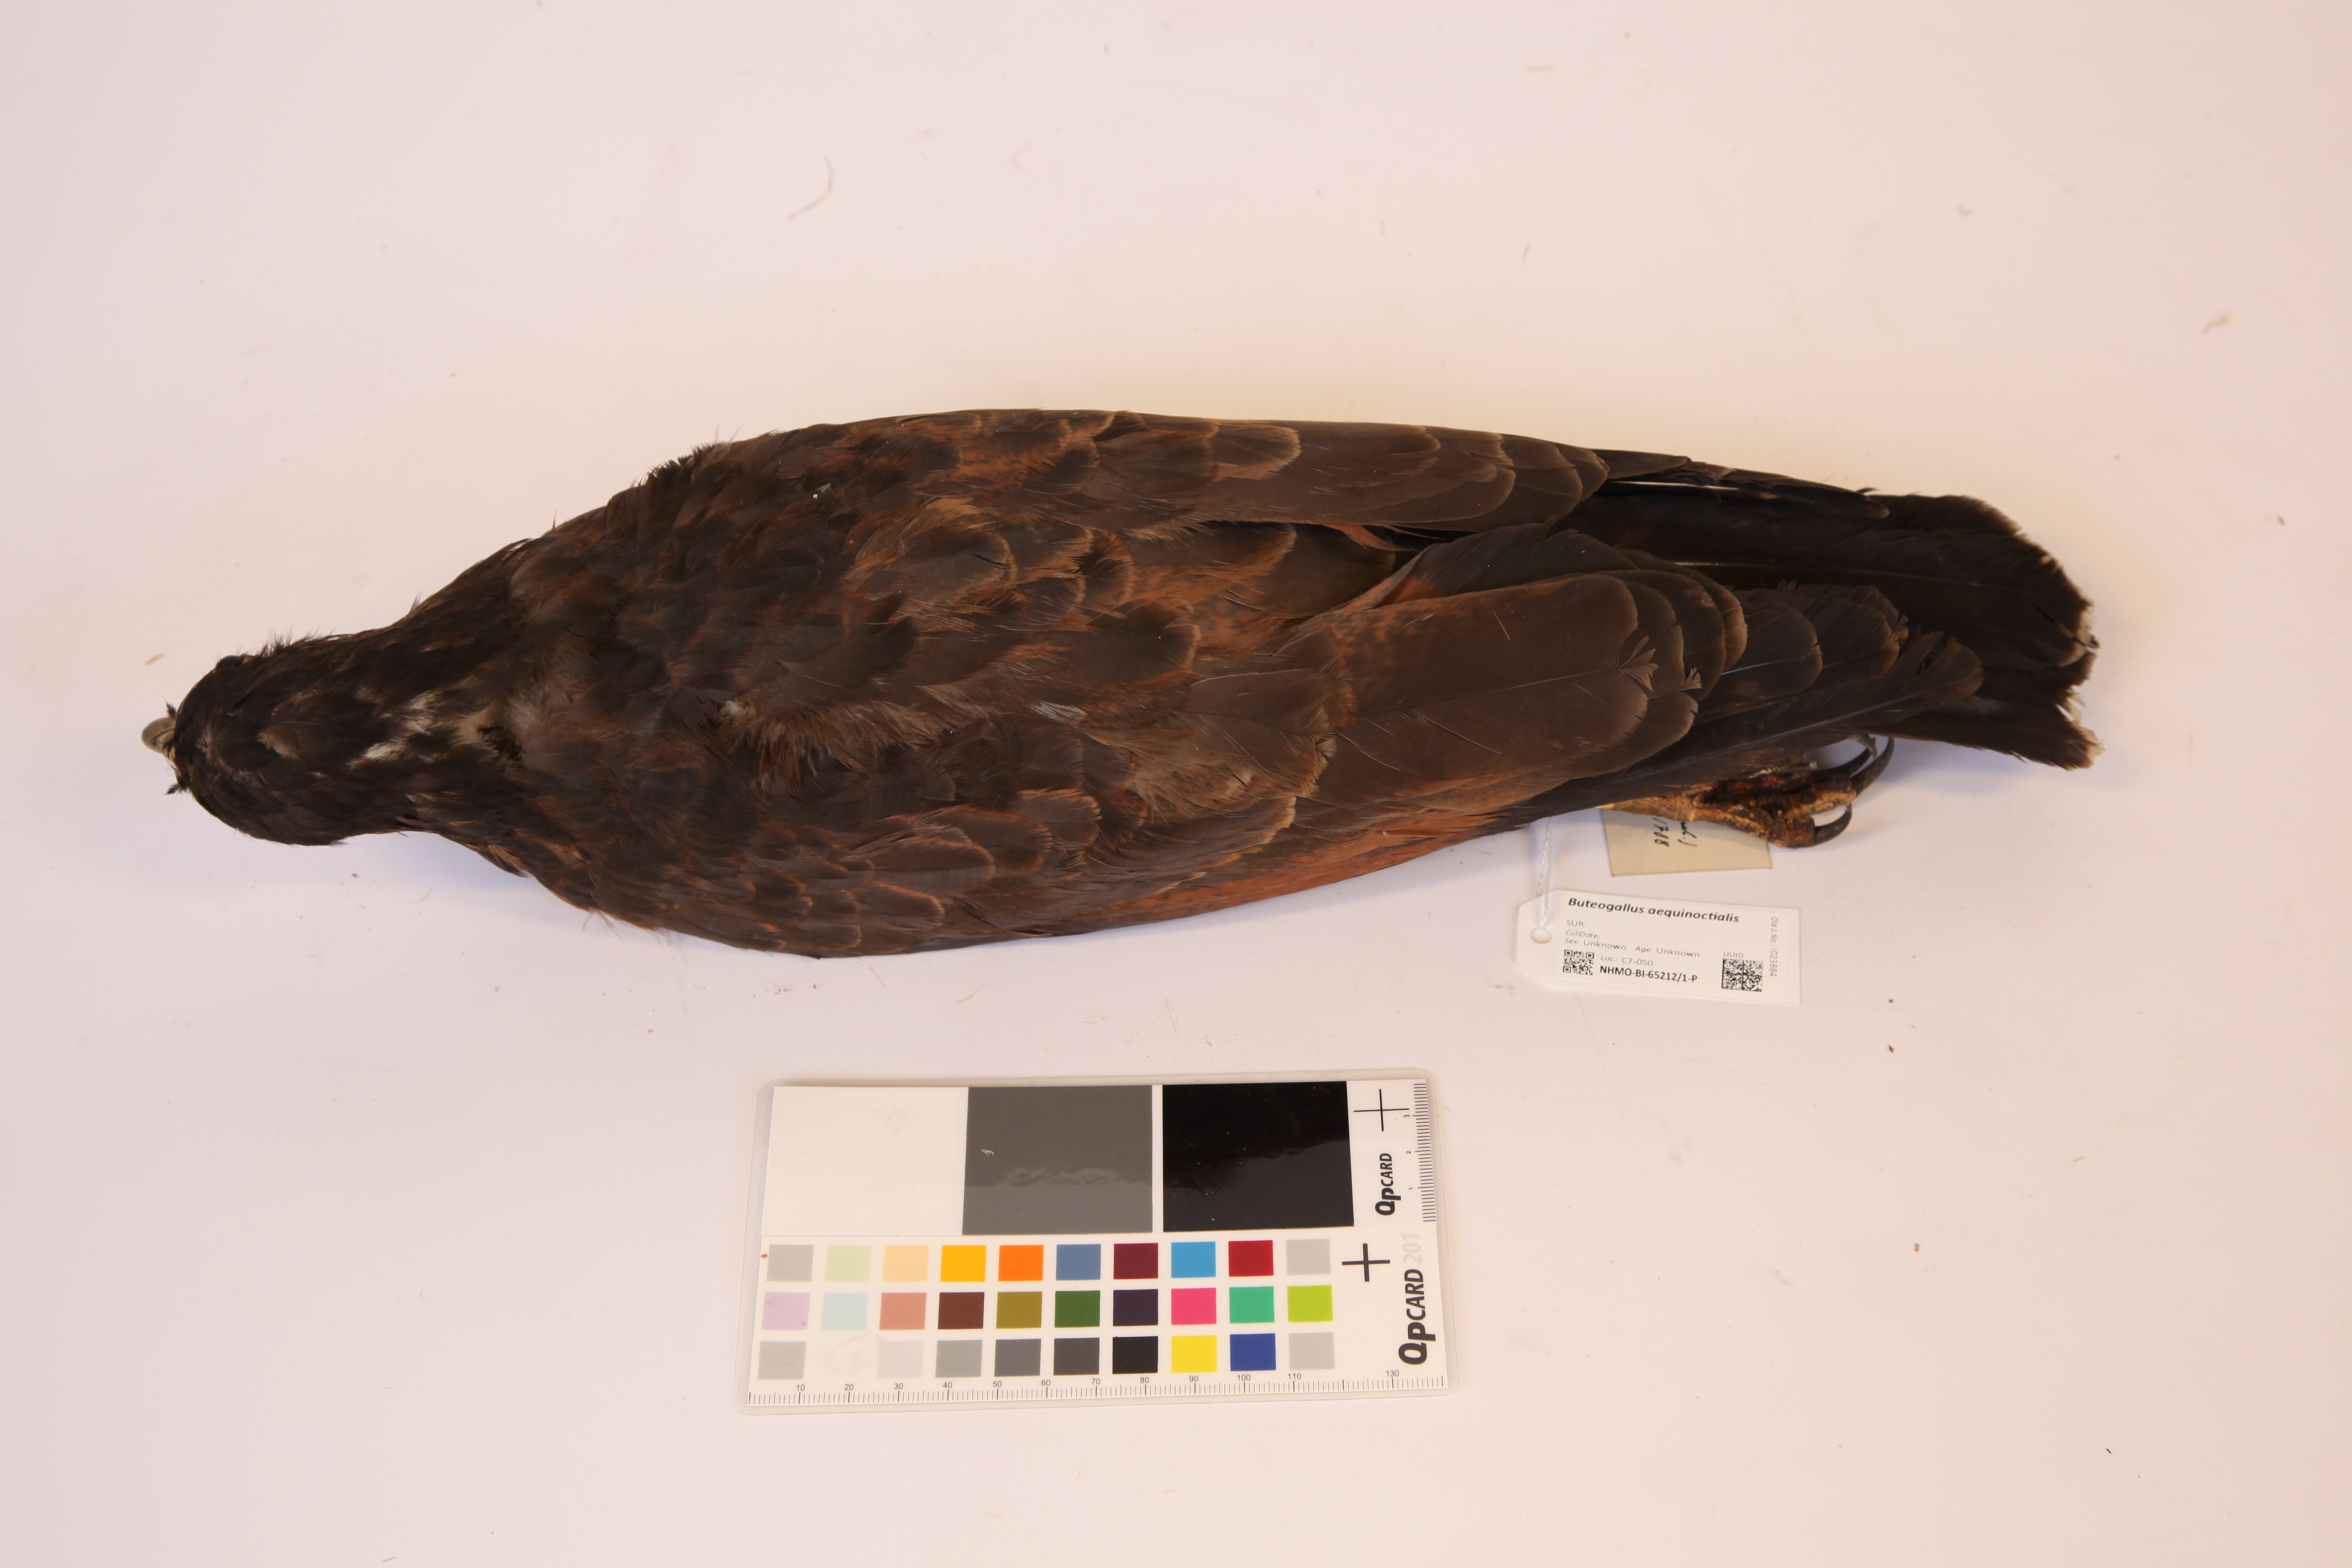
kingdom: Animalia
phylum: Chordata
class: Aves
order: Accipitriformes
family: Accipitridae
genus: Buteogallus
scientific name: Buteogallus aequinoctialis
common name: Rufous crab hawk
